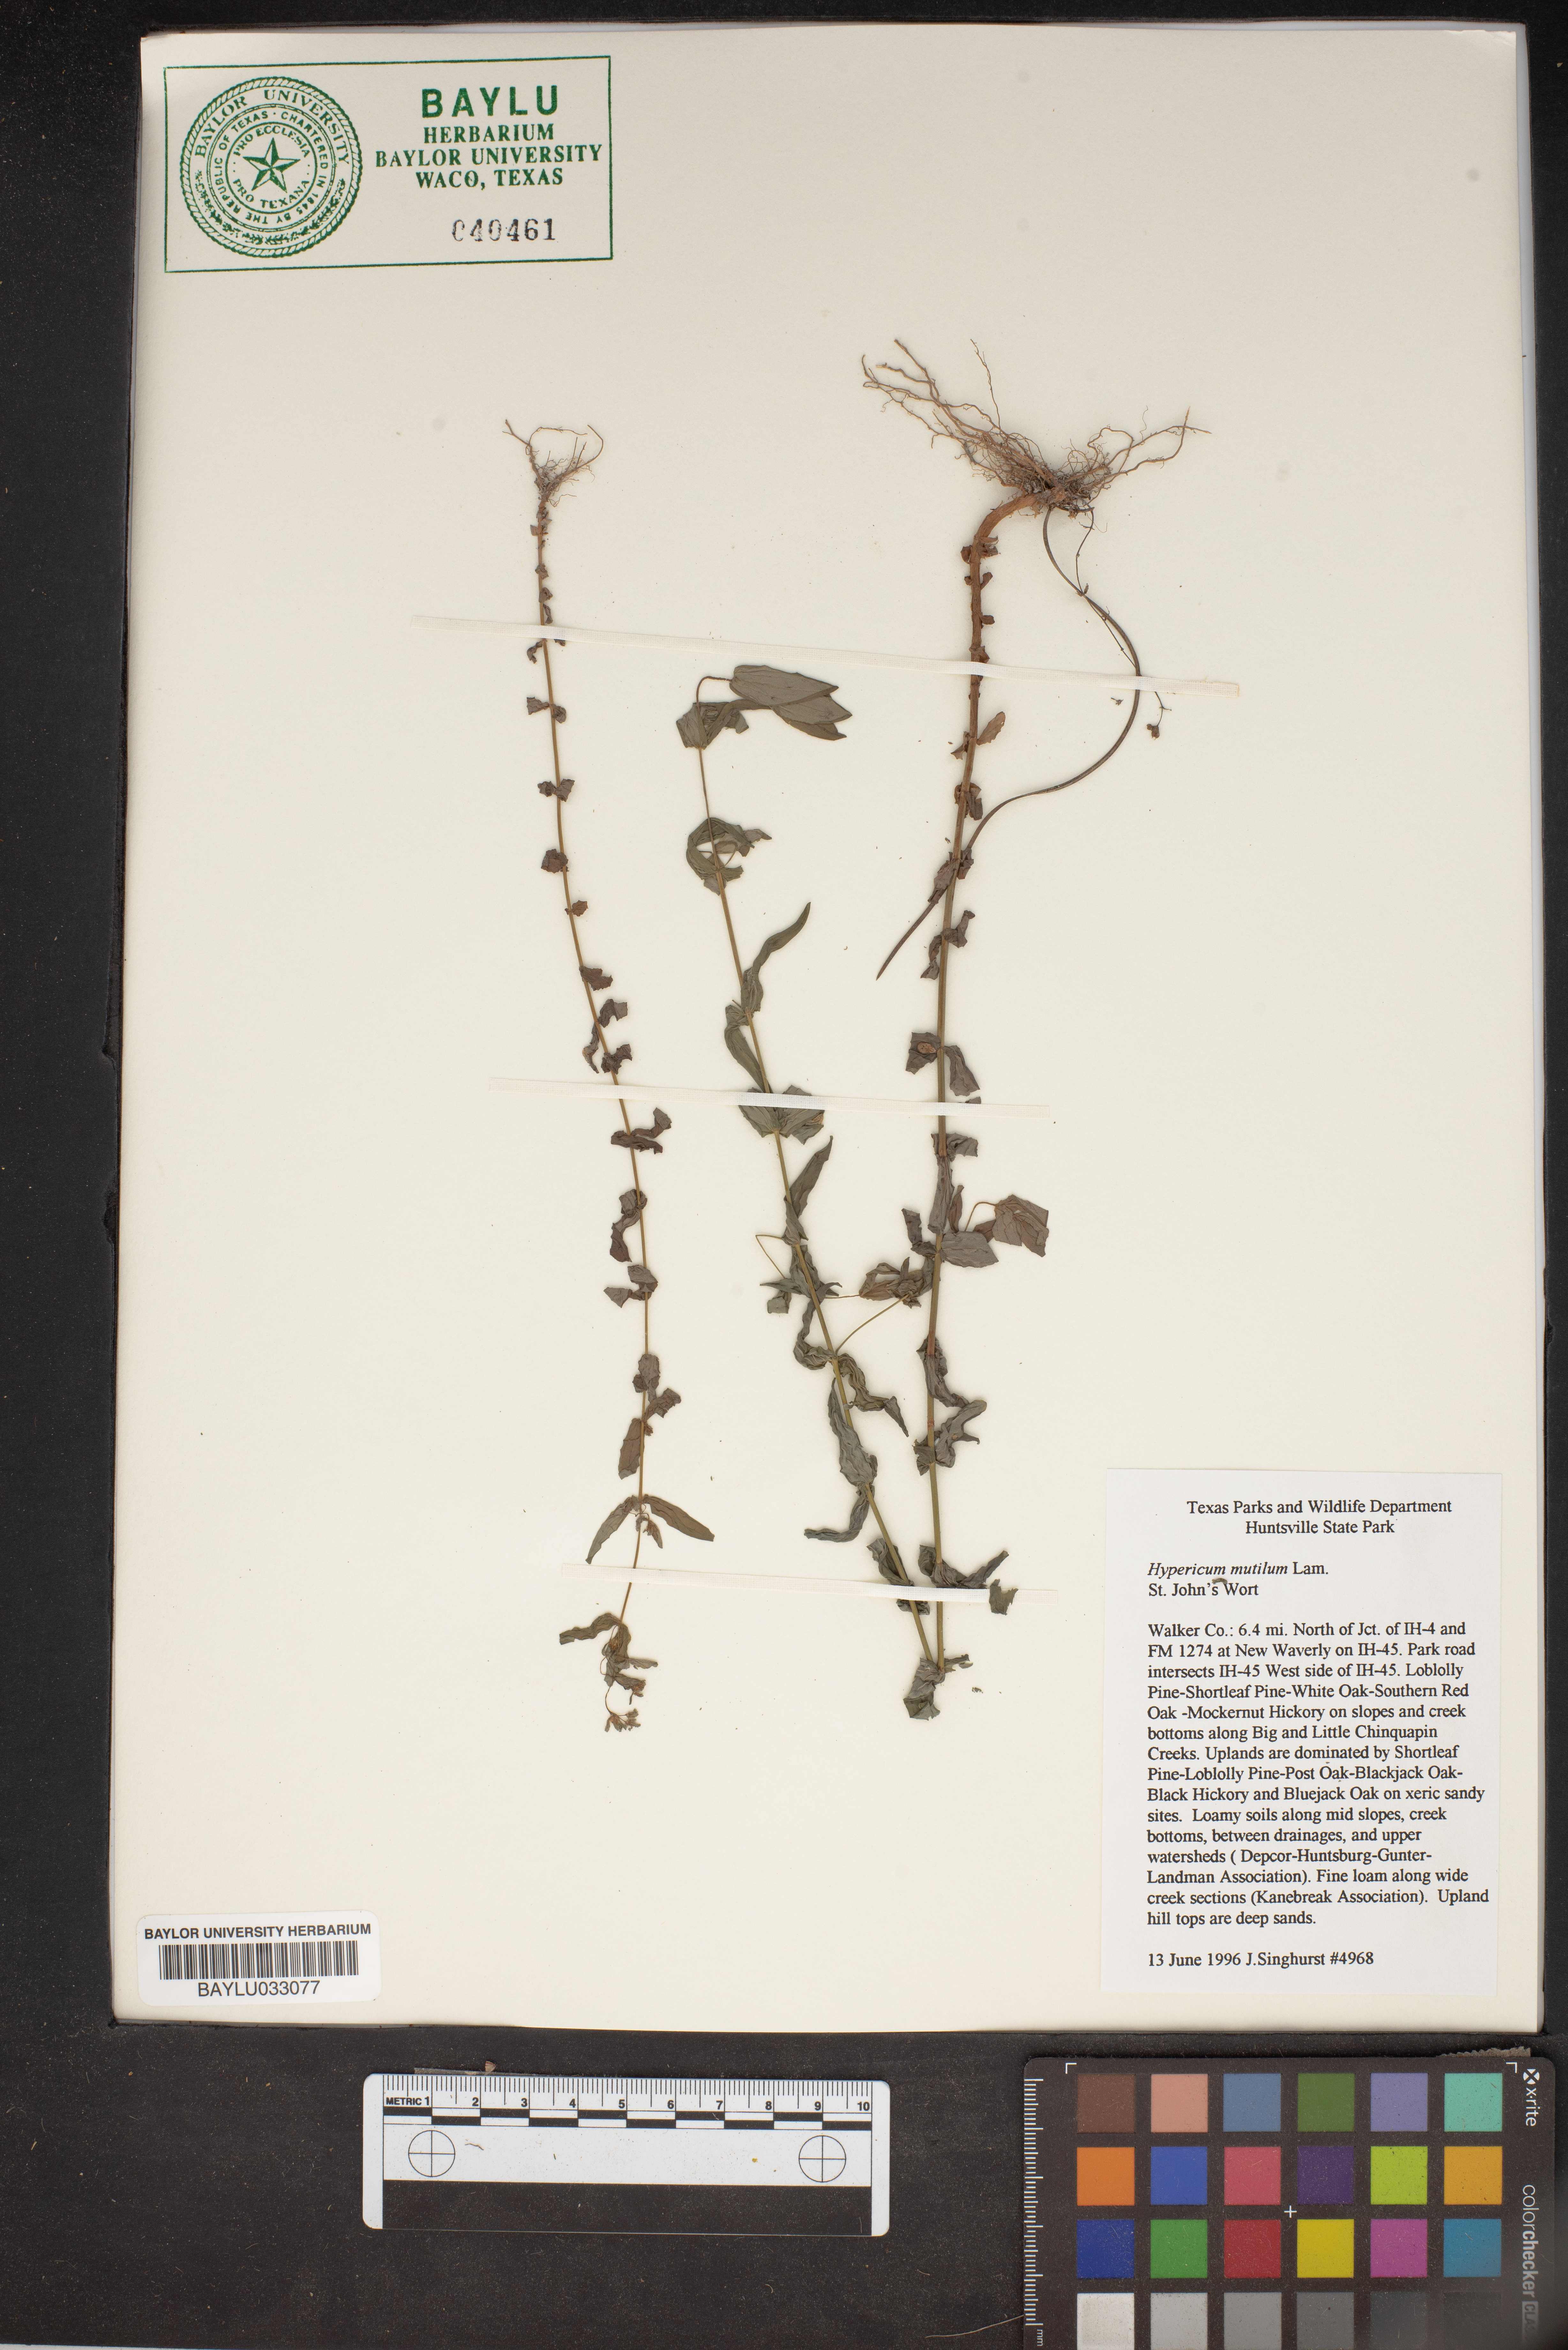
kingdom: Plantae
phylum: Tracheophyta
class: Magnoliopsida
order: Malpighiales
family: Hypericaceae
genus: Hypericum
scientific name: Hypericum mutilum
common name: Dwarf st. john's-wort
